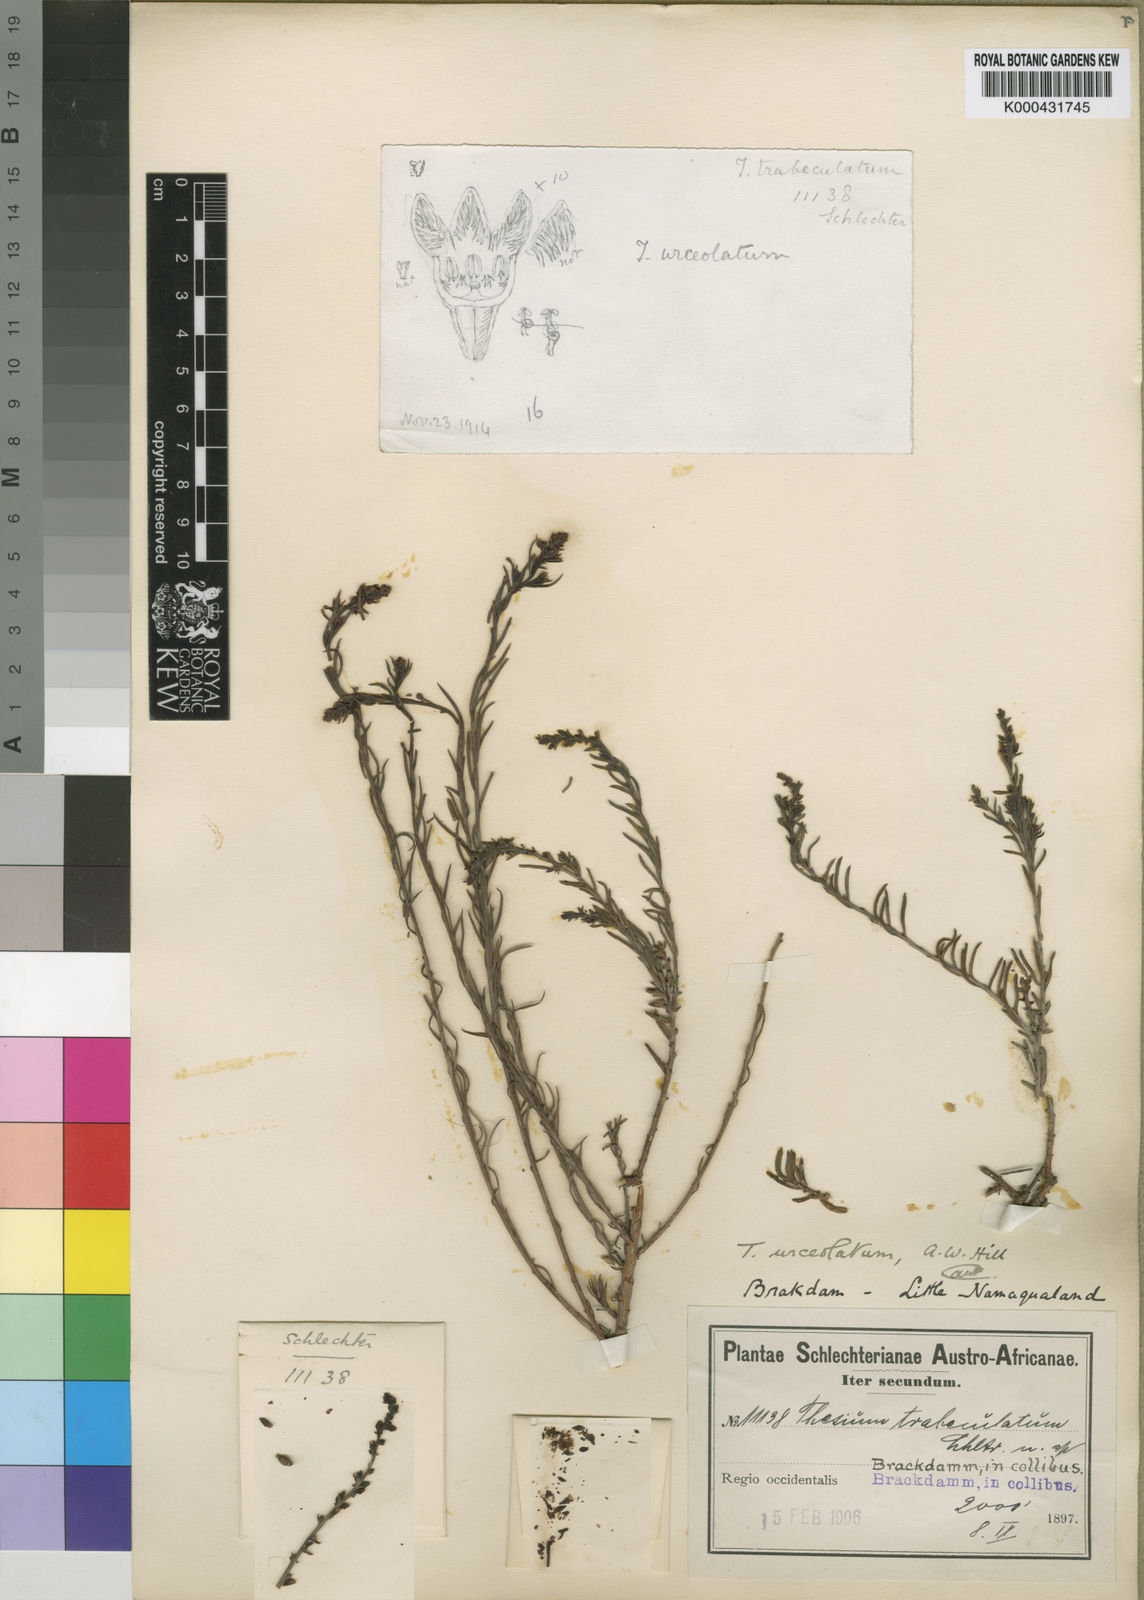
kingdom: Plantae
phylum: Tracheophyta
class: Magnoliopsida
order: Santalales
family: Thesiaceae
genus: Thesium
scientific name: Thesium urceolatum
